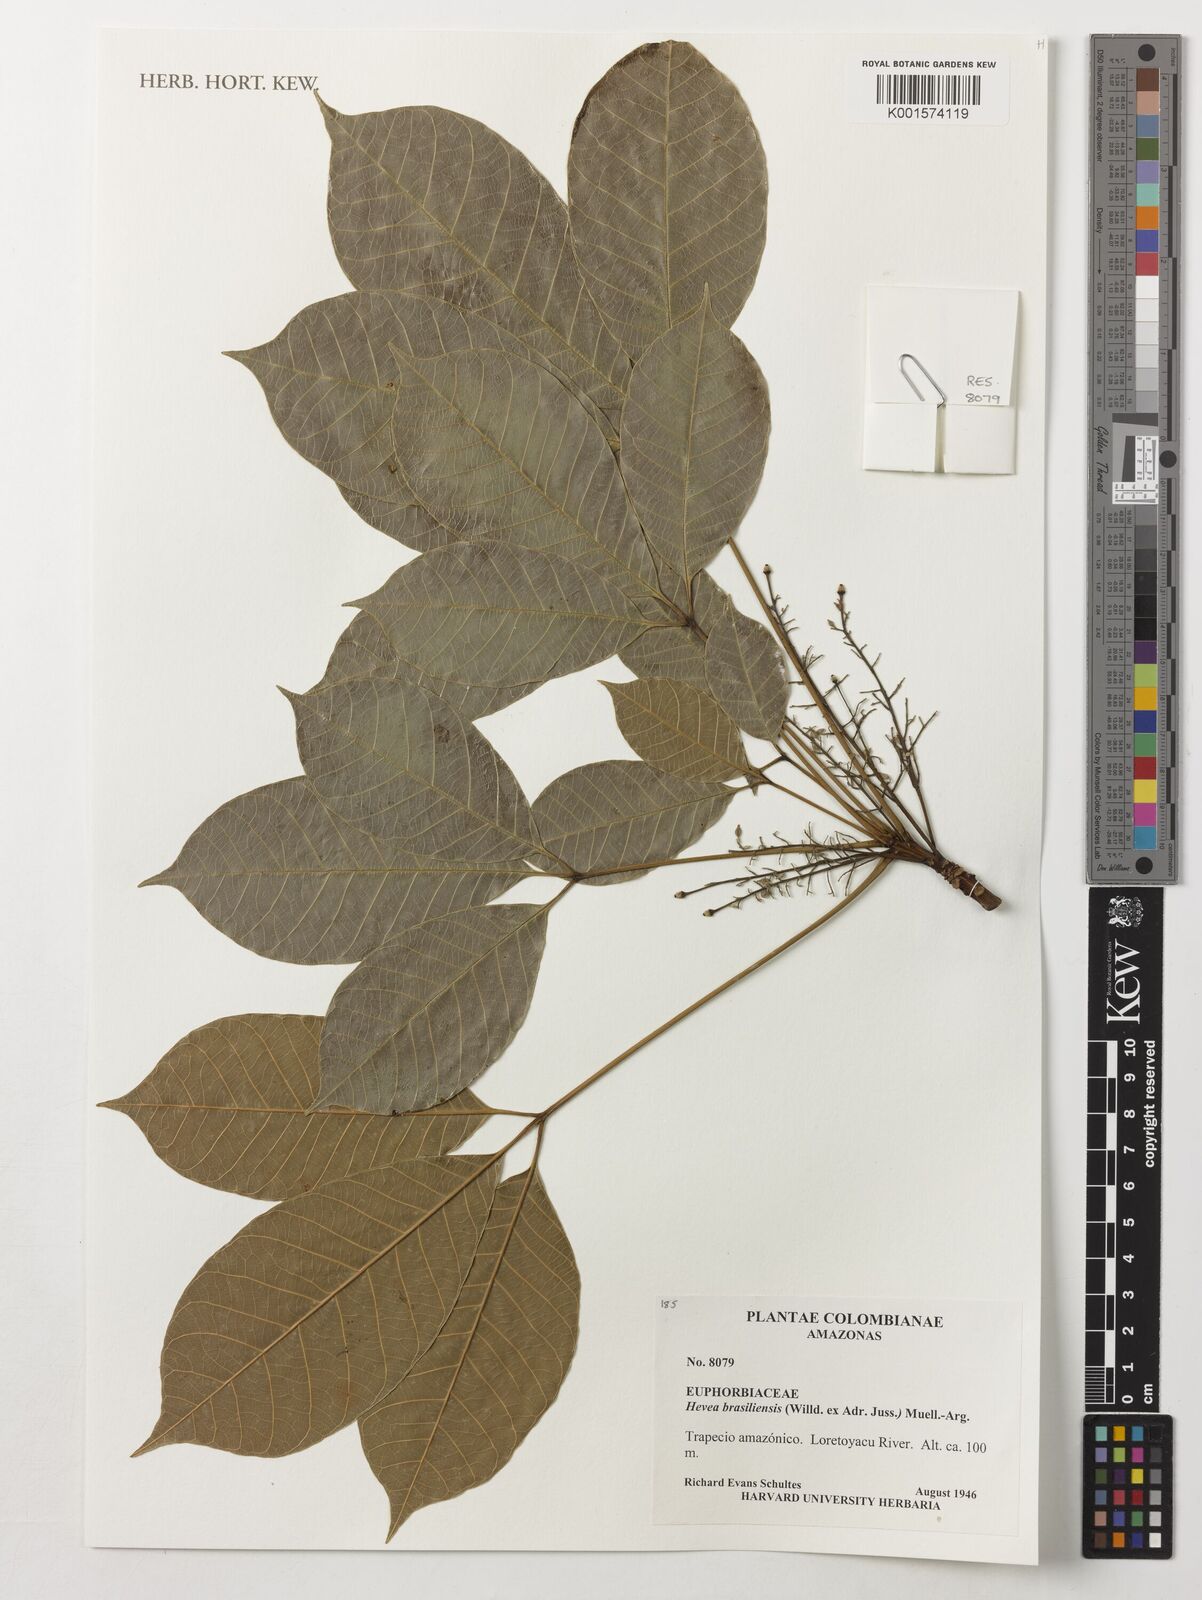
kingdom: Plantae
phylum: Tracheophyta
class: Magnoliopsida
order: Malpighiales
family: Euphorbiaceae
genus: Hevea
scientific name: Hevea brasiliensis
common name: Natural rubber
